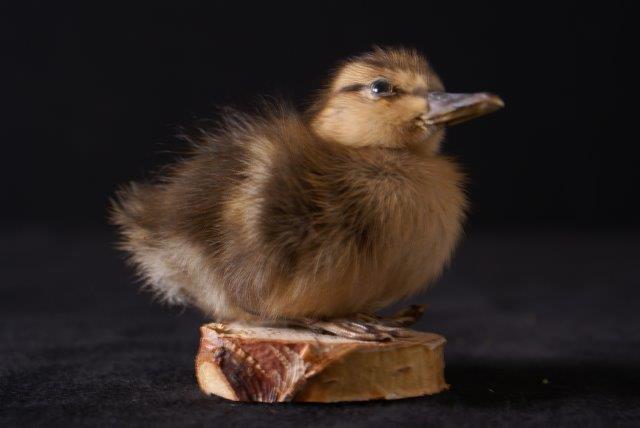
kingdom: Animalia
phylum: Chordata
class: Aves
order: Anseriformes
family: Anatidae
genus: Anas
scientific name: Anas platyrhynchos
